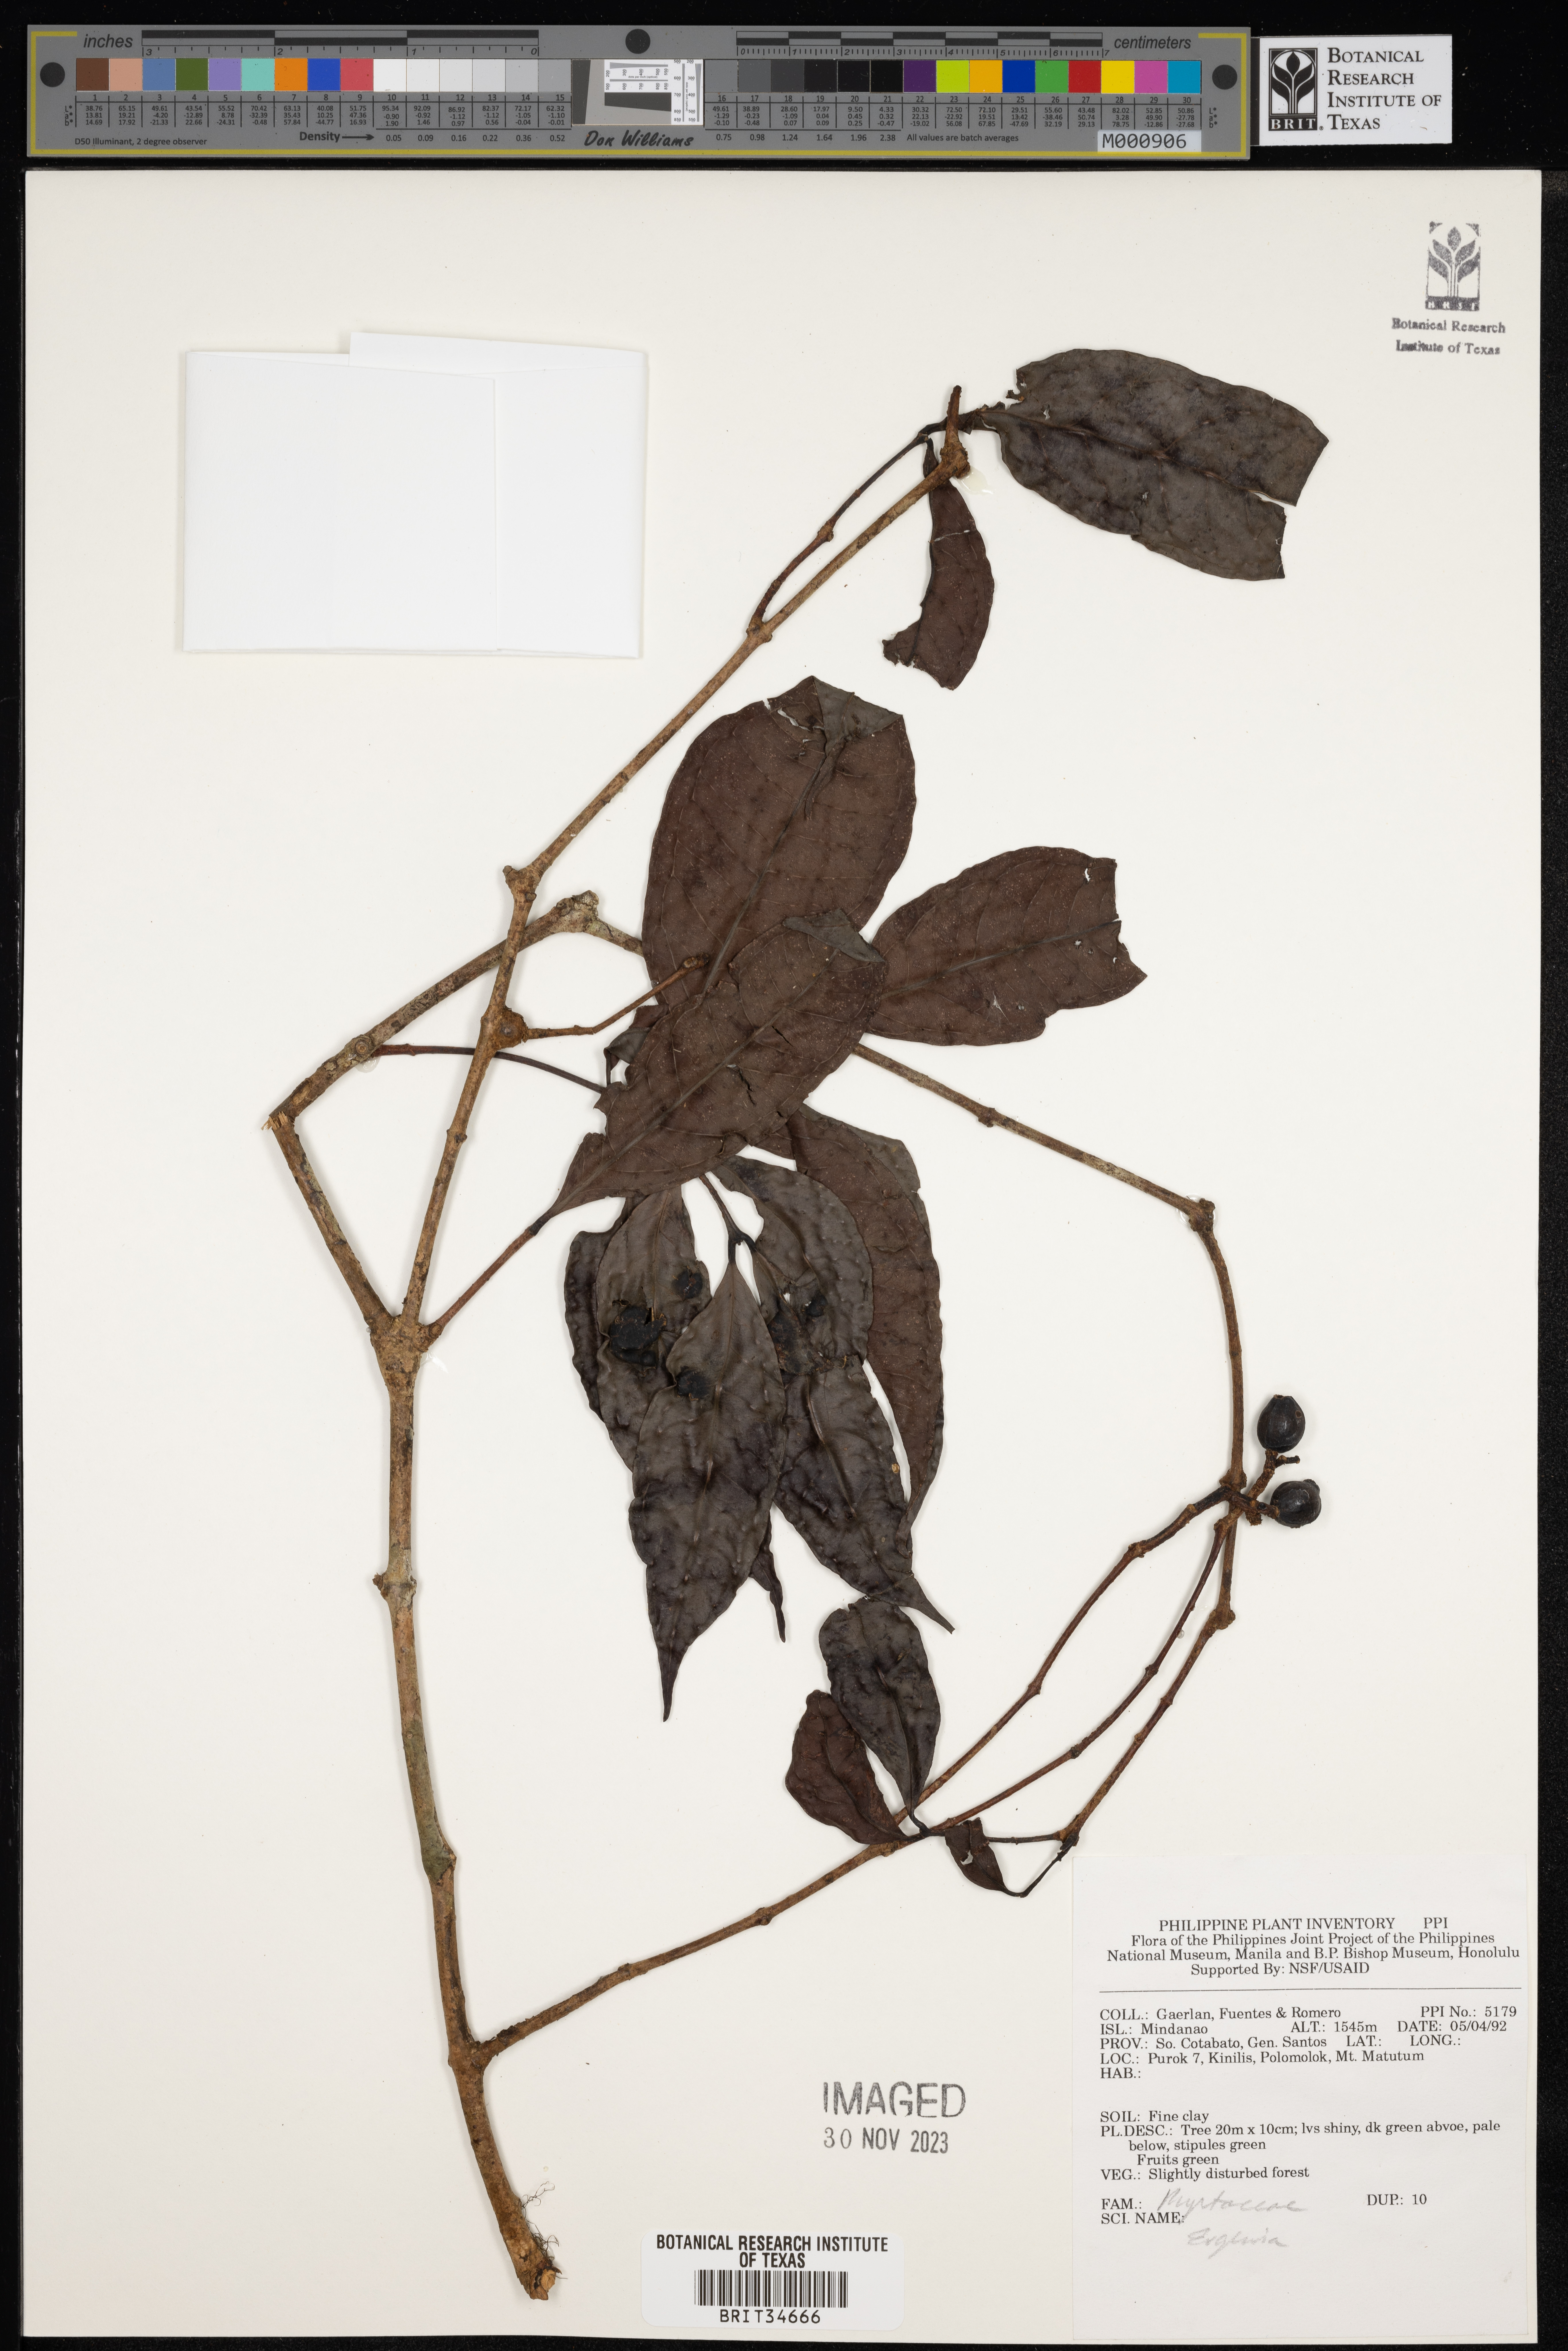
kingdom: Plantae
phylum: Tracheophyta
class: Magnoliopsida
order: Myrtales
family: Myrtaceae
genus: Eugenia
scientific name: Eugenia
